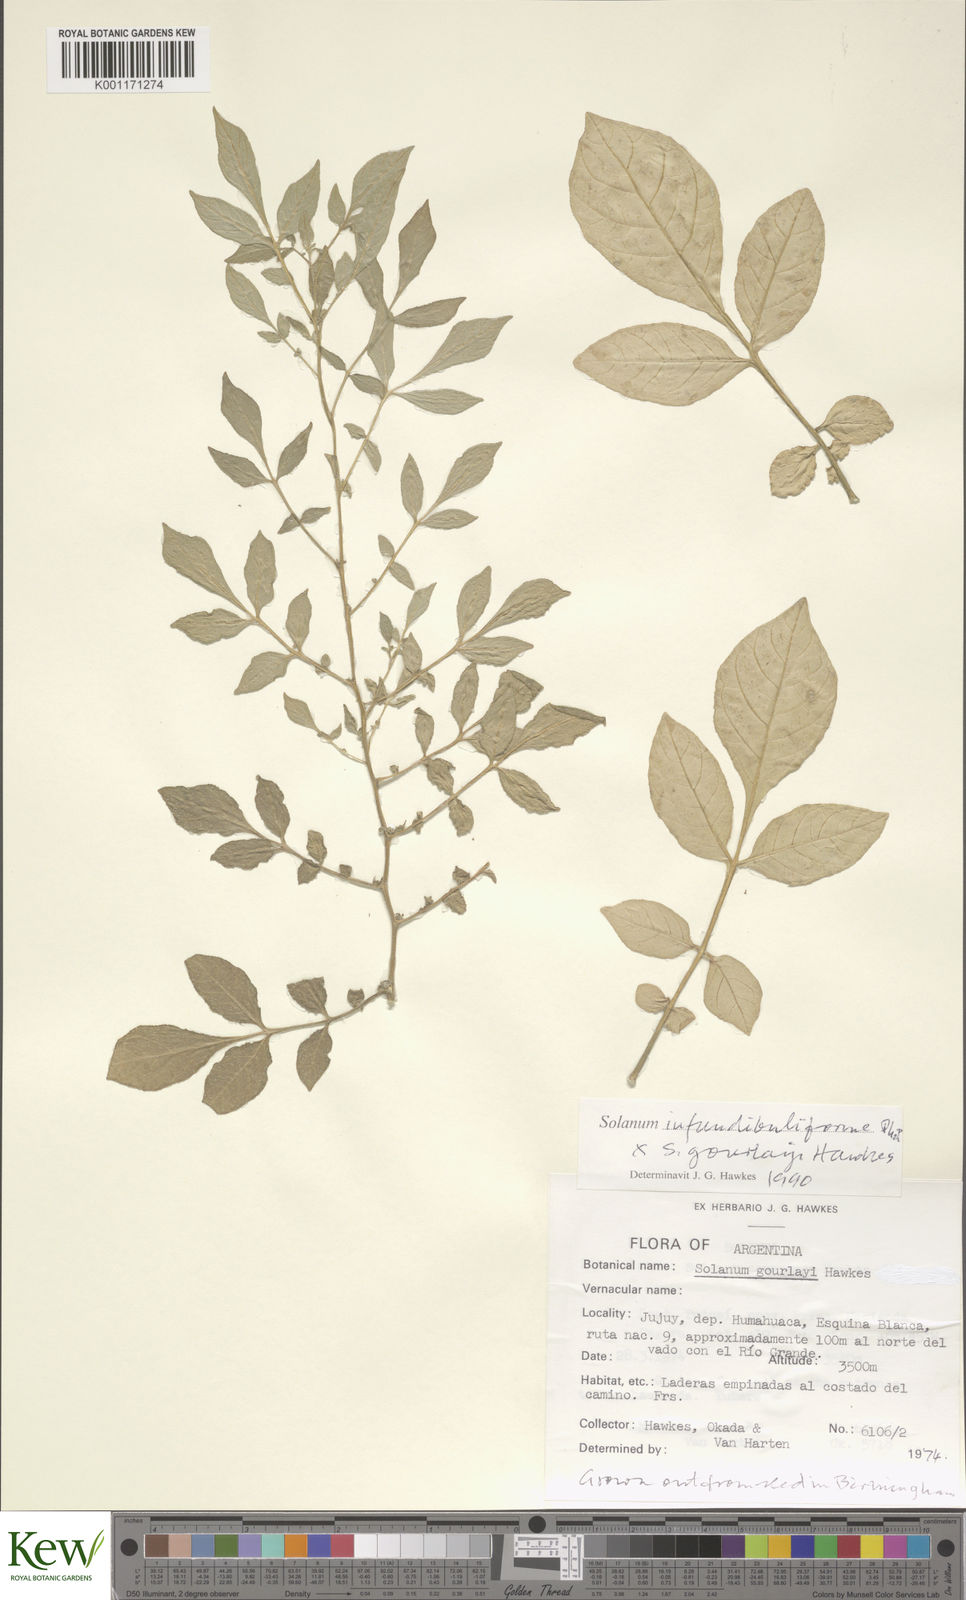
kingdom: Plantae
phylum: Tracheophyta
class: Magnoliopsida
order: Solanales
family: Solanaceae
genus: Solanum
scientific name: Solanum infundibuliforme
